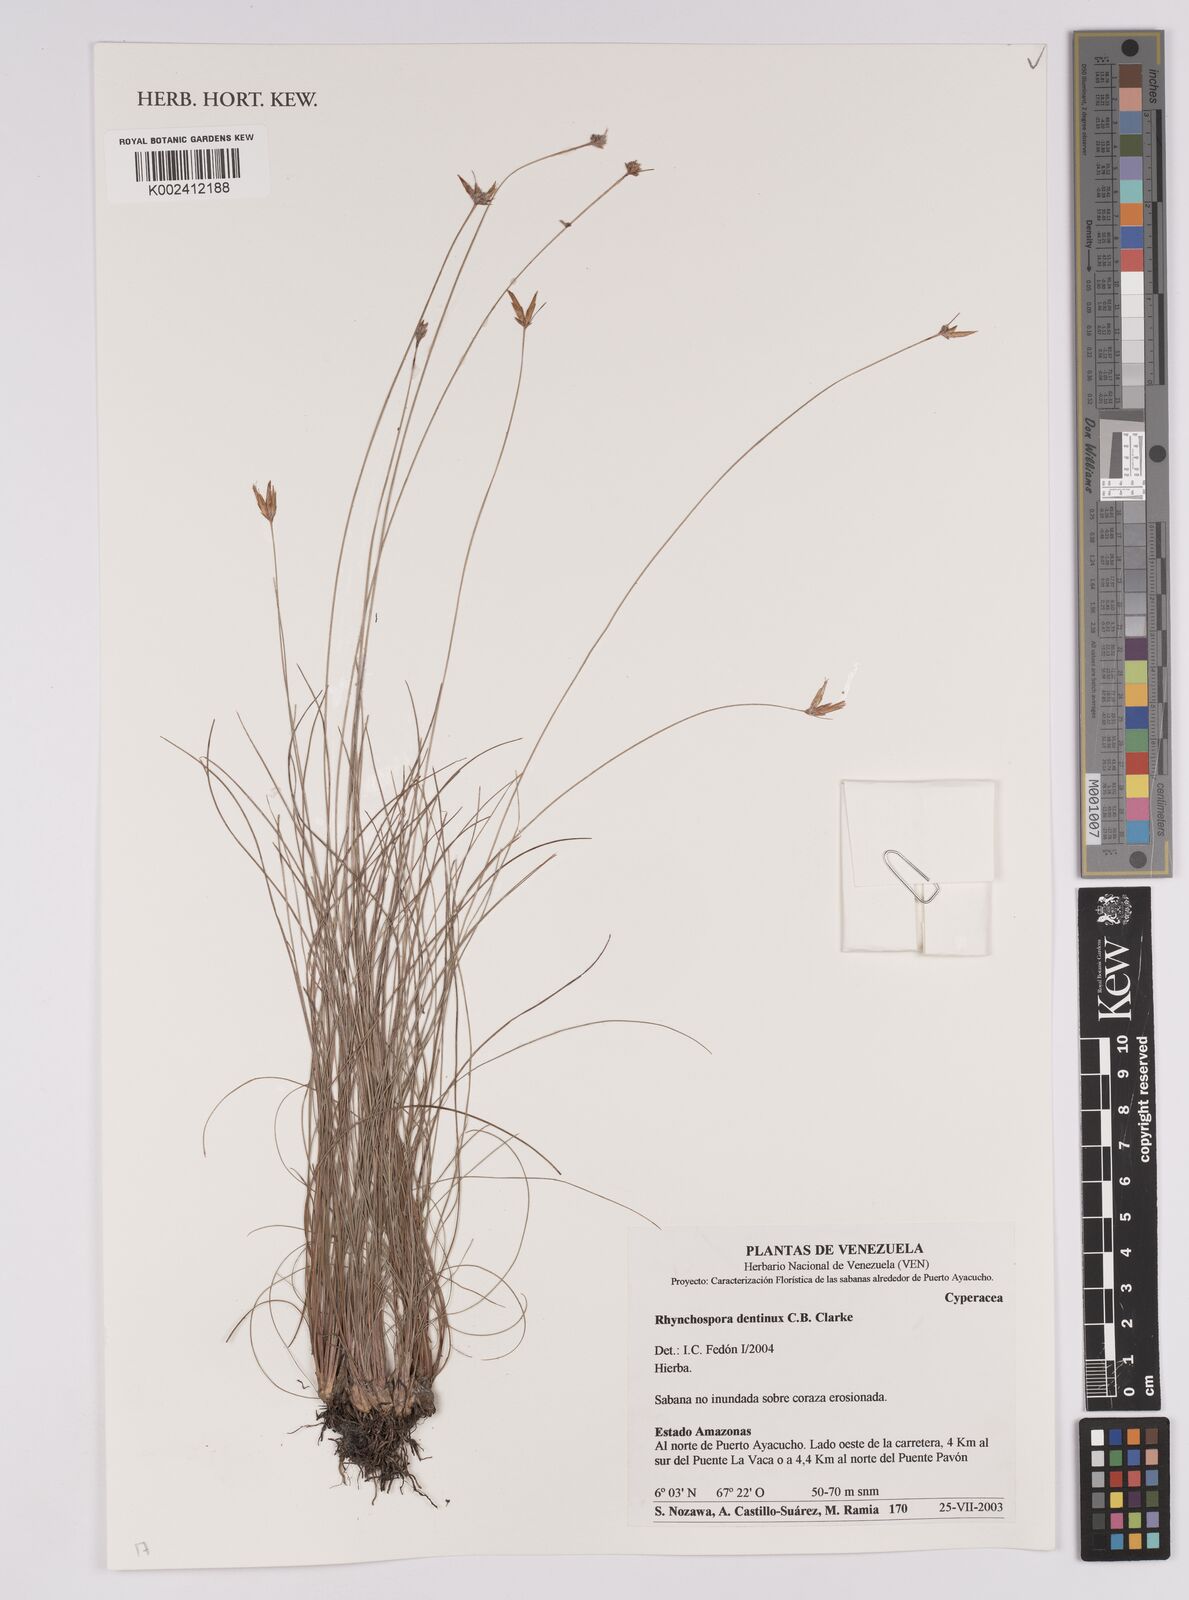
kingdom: Plantae
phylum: Tracheophyta
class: Liliopsida
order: Poales
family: Cyperaceae
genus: Rhynchospora
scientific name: Rhynchospora dentinux
